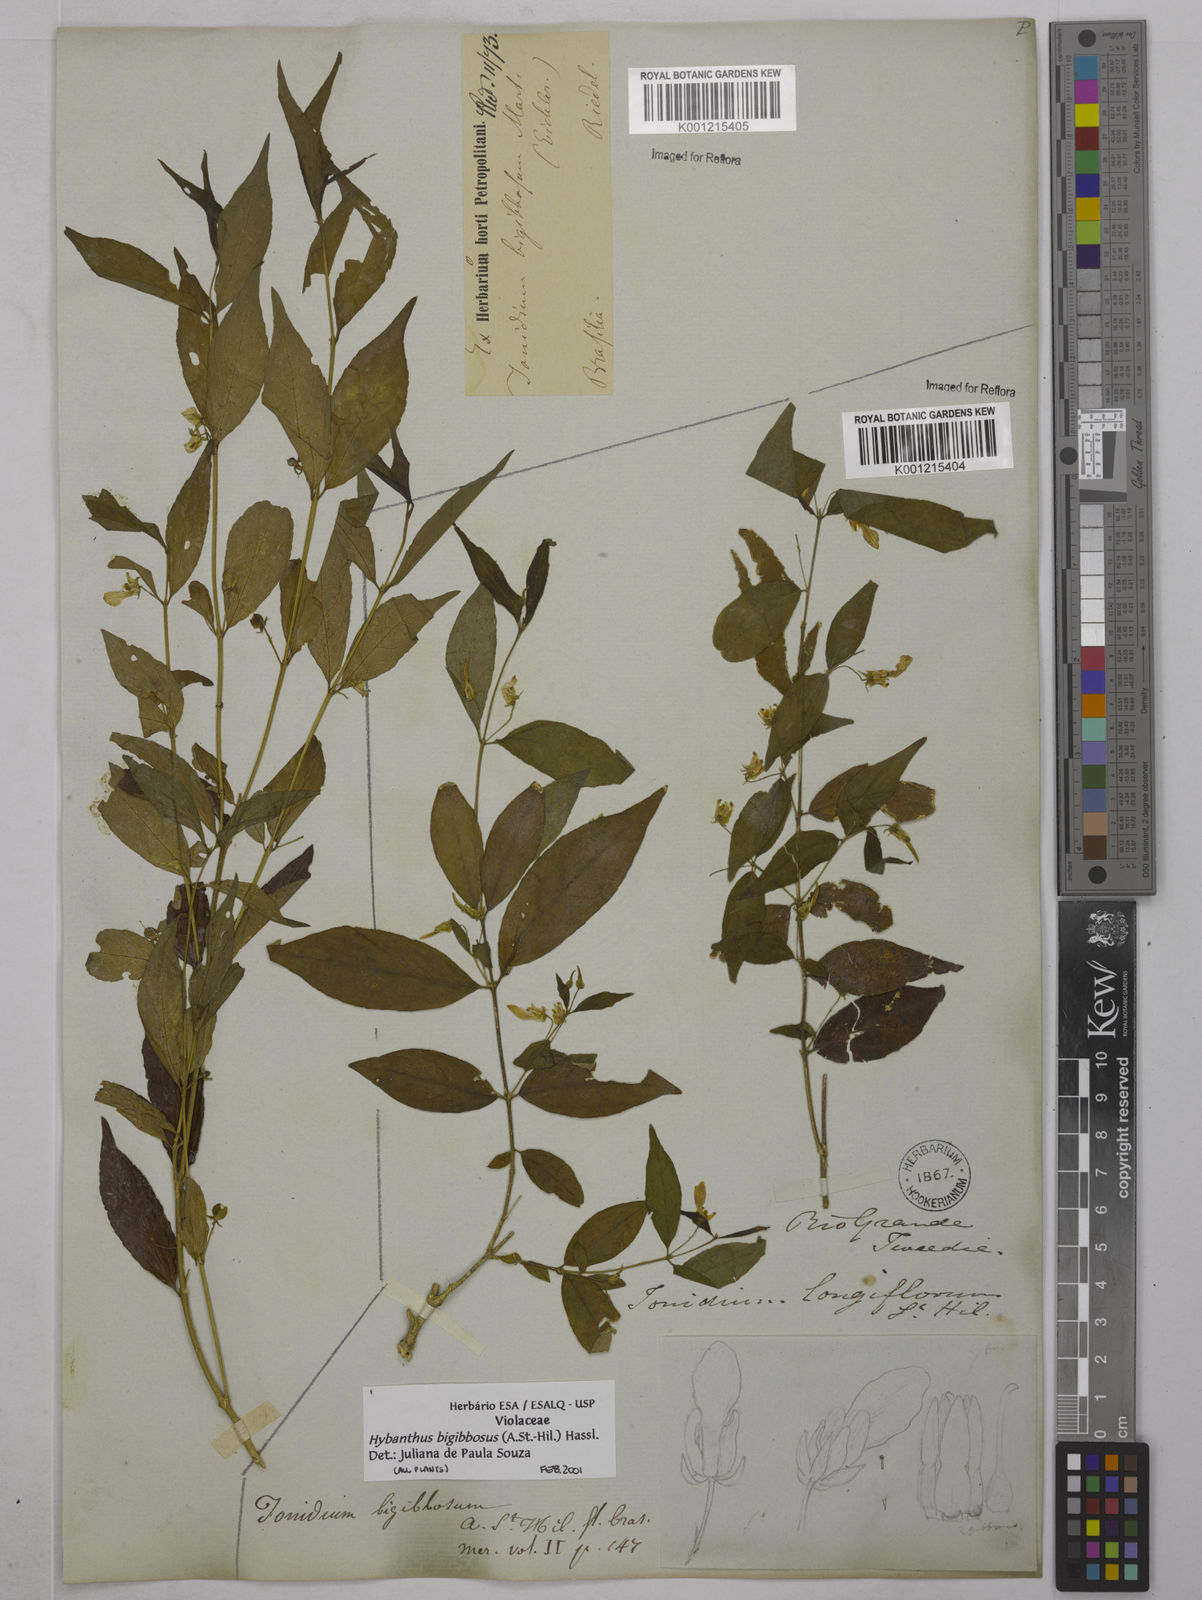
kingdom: Plantae
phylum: Tracheophyta
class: Magnoliopsida
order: Malpighiales
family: Violaceae
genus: Pombalia
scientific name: Pombalia bigibbosa
